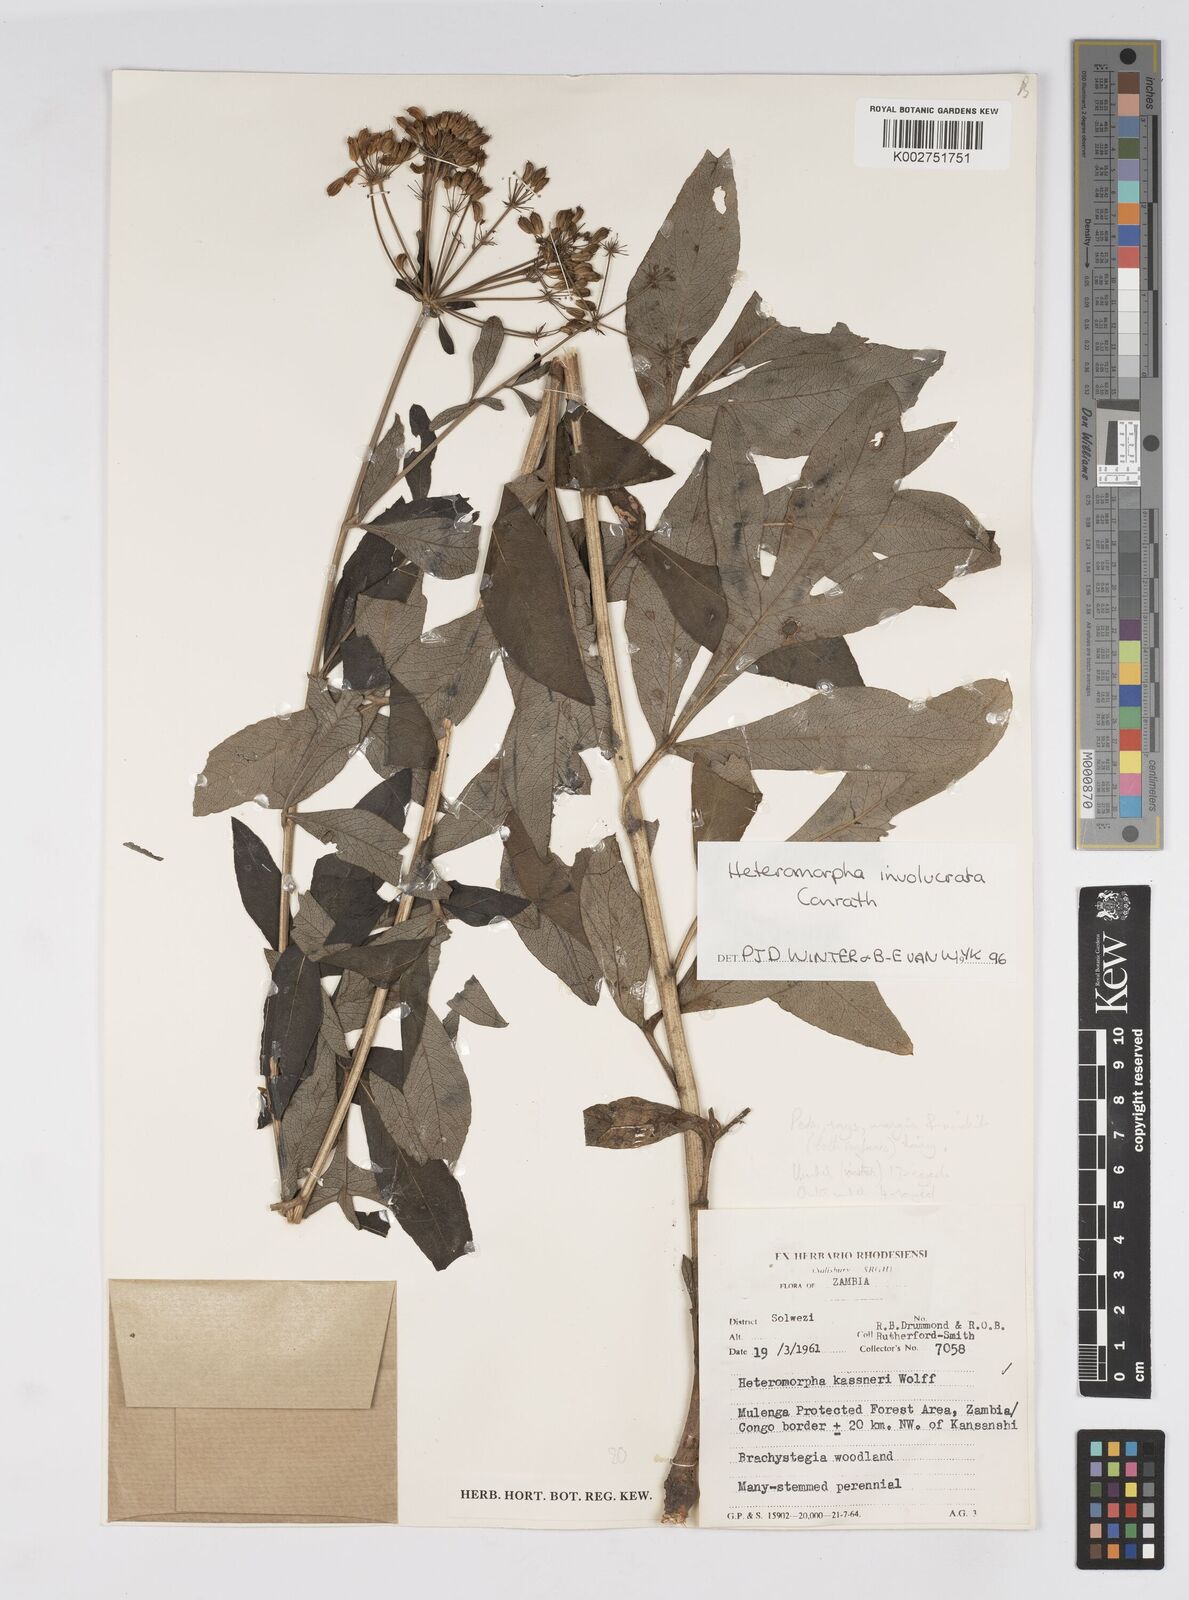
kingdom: Plantae
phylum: Tracheophyta
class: Magnoliopsida
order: Apiales
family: Apiaceae
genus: Heteromorpha
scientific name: Heteromorpha involucrata
